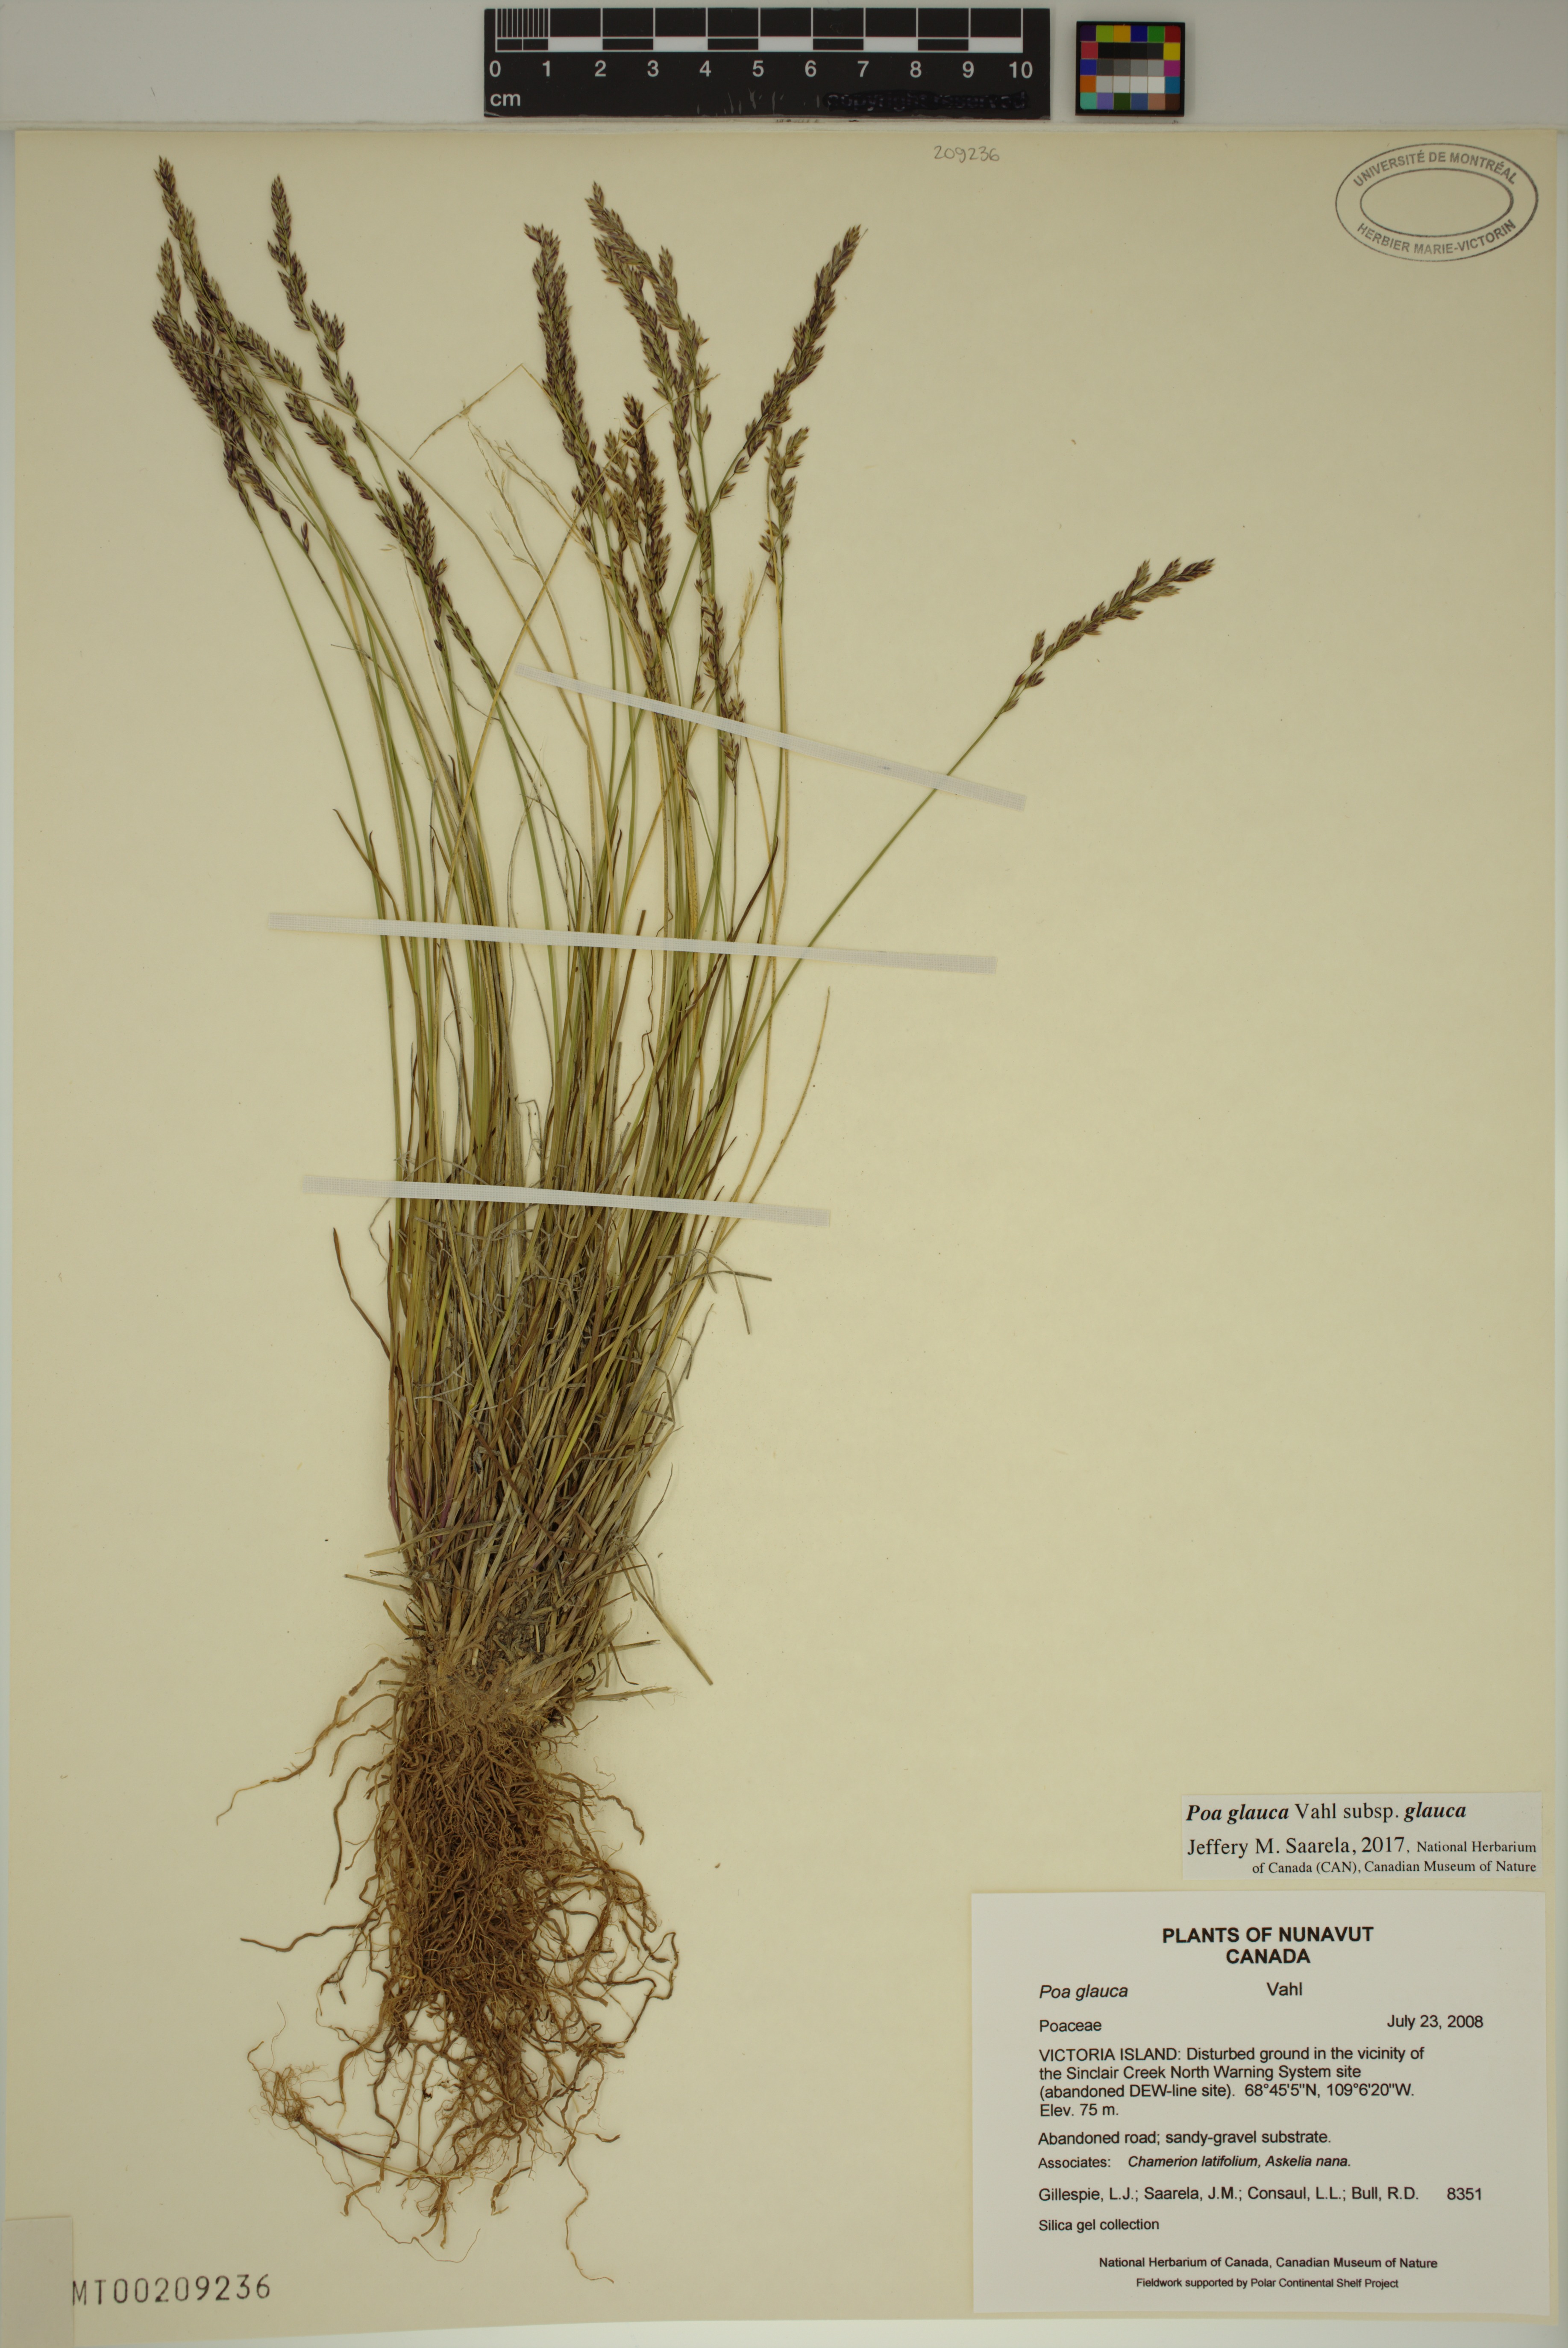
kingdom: Plantae
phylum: Tracheophyta
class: Liliopsida
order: Poales
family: Poaceae
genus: Poa
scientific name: Poa glauca
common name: Glaucous bluegrass
